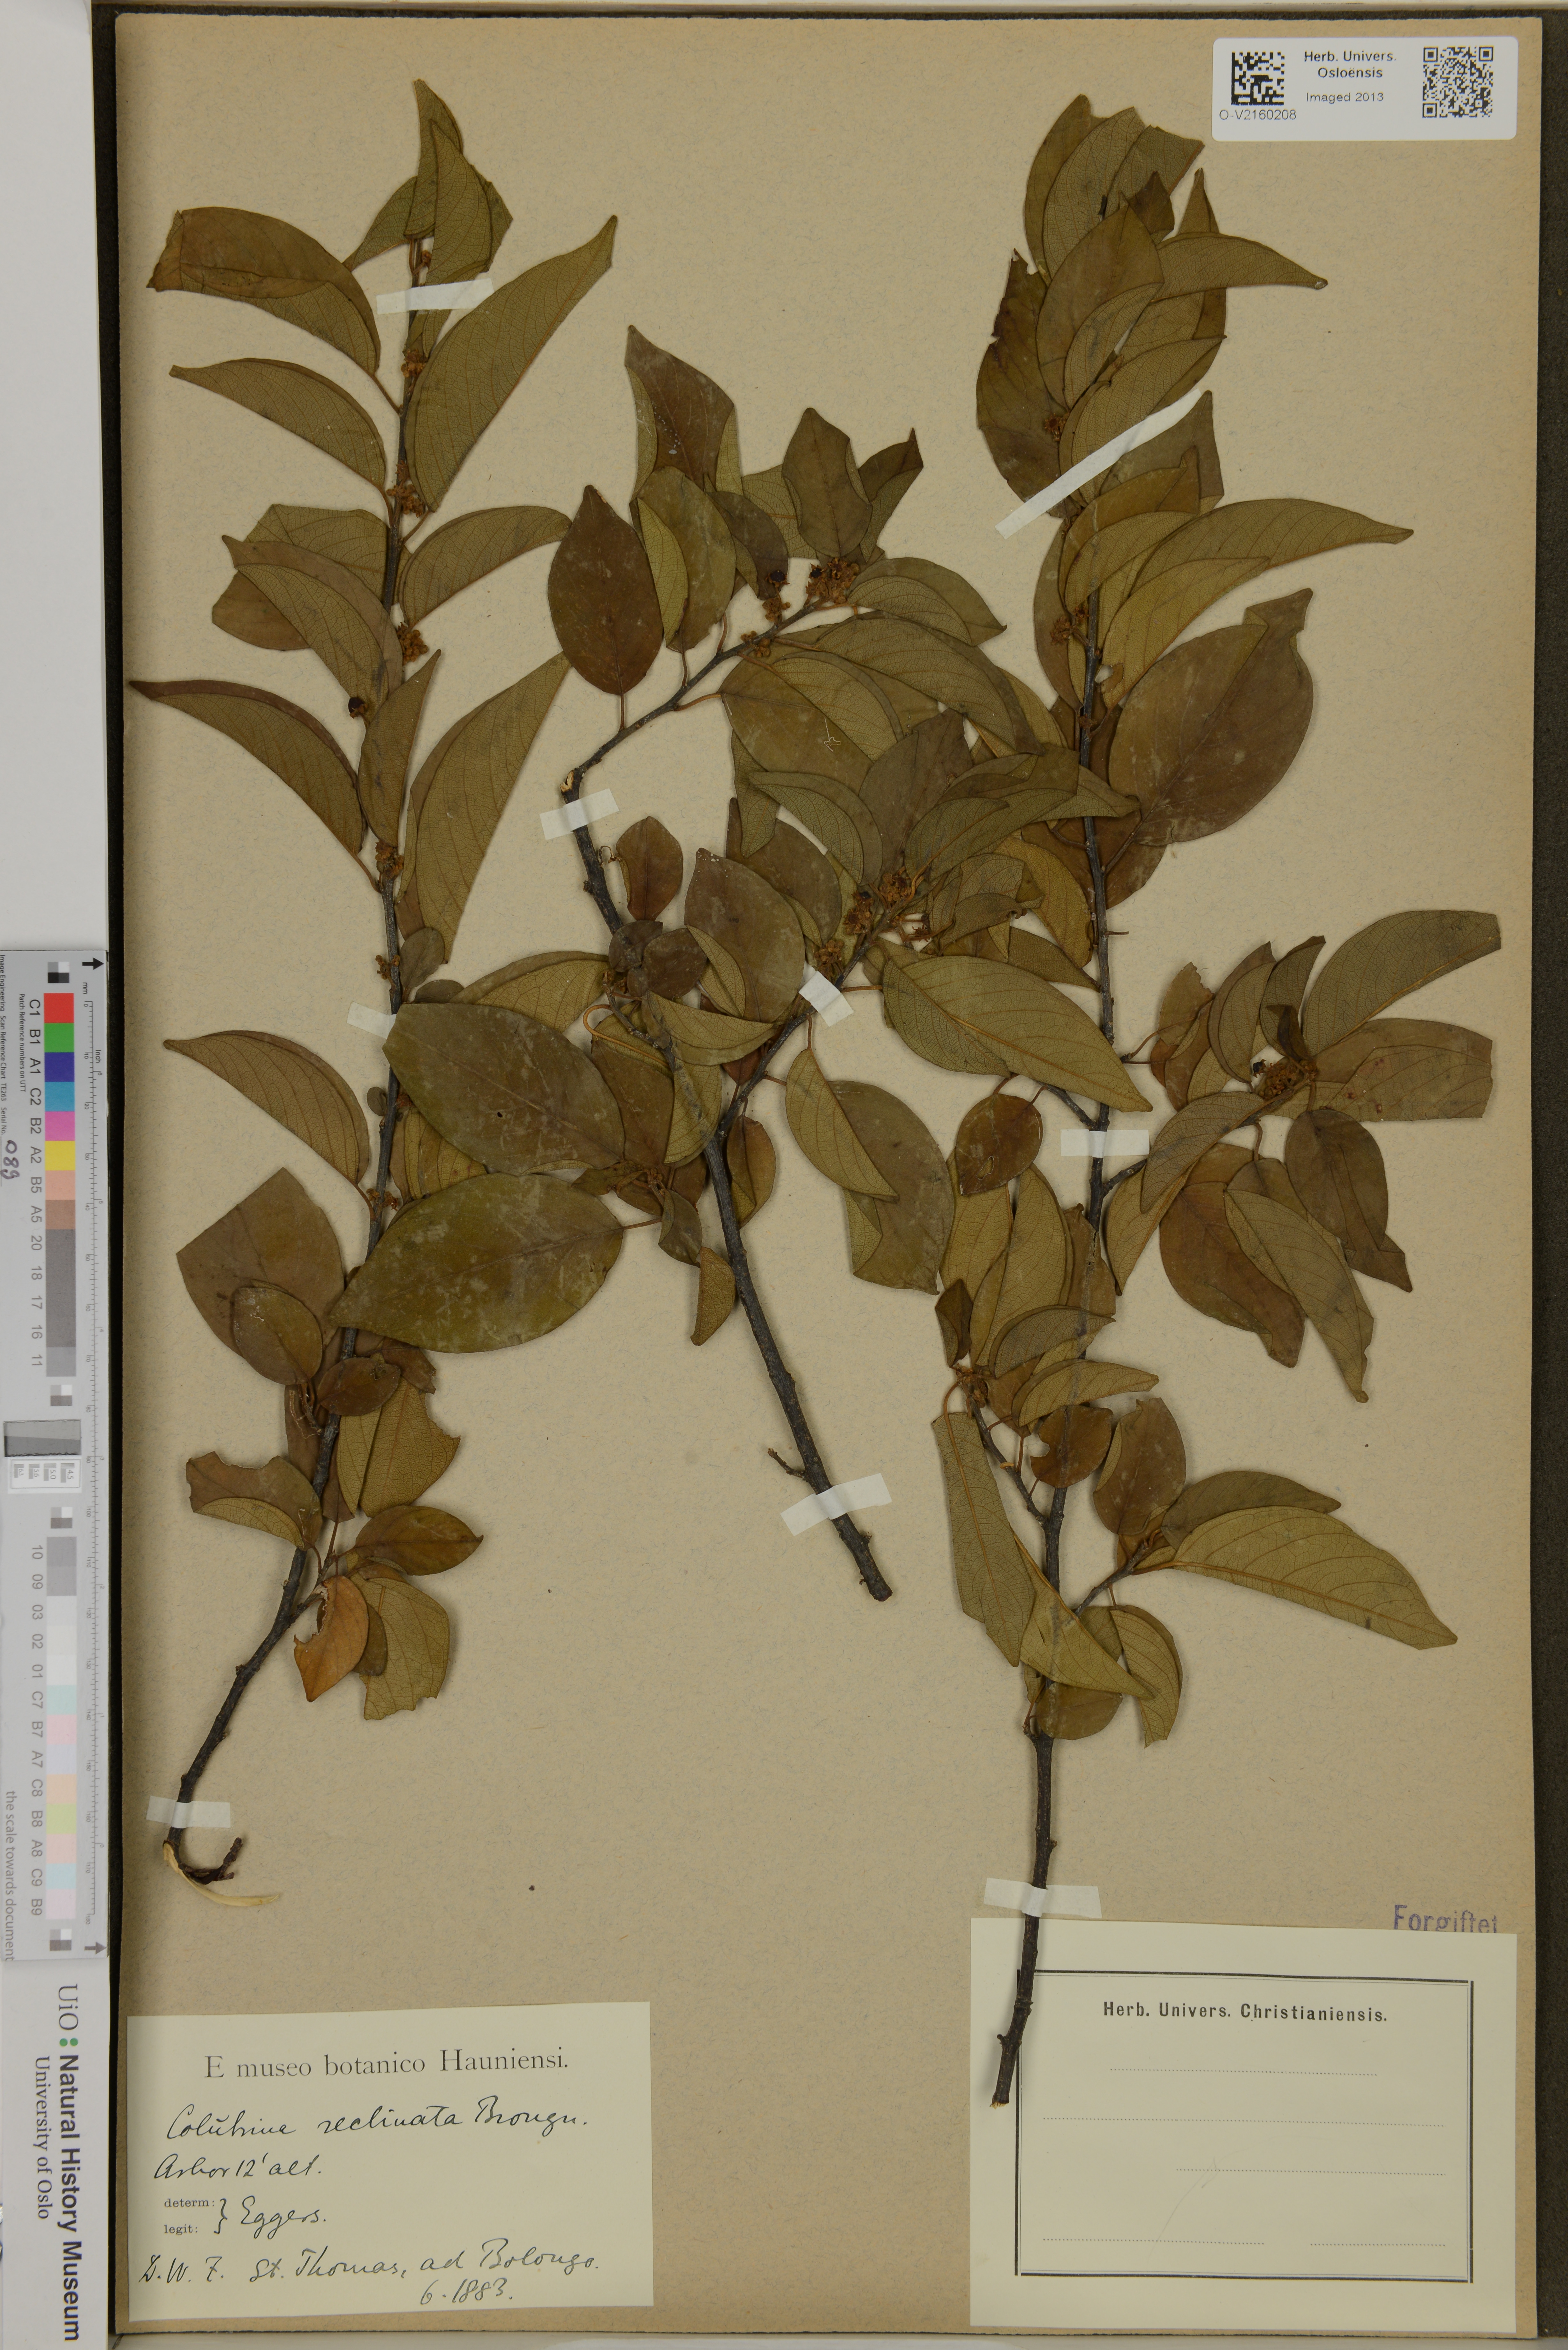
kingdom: Plantae
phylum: Tracheophyta
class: Magnoliopsida
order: Rosales
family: Rhamnaceae
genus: Colubrina
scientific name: Colubrina elliptica
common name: Soldierwood
